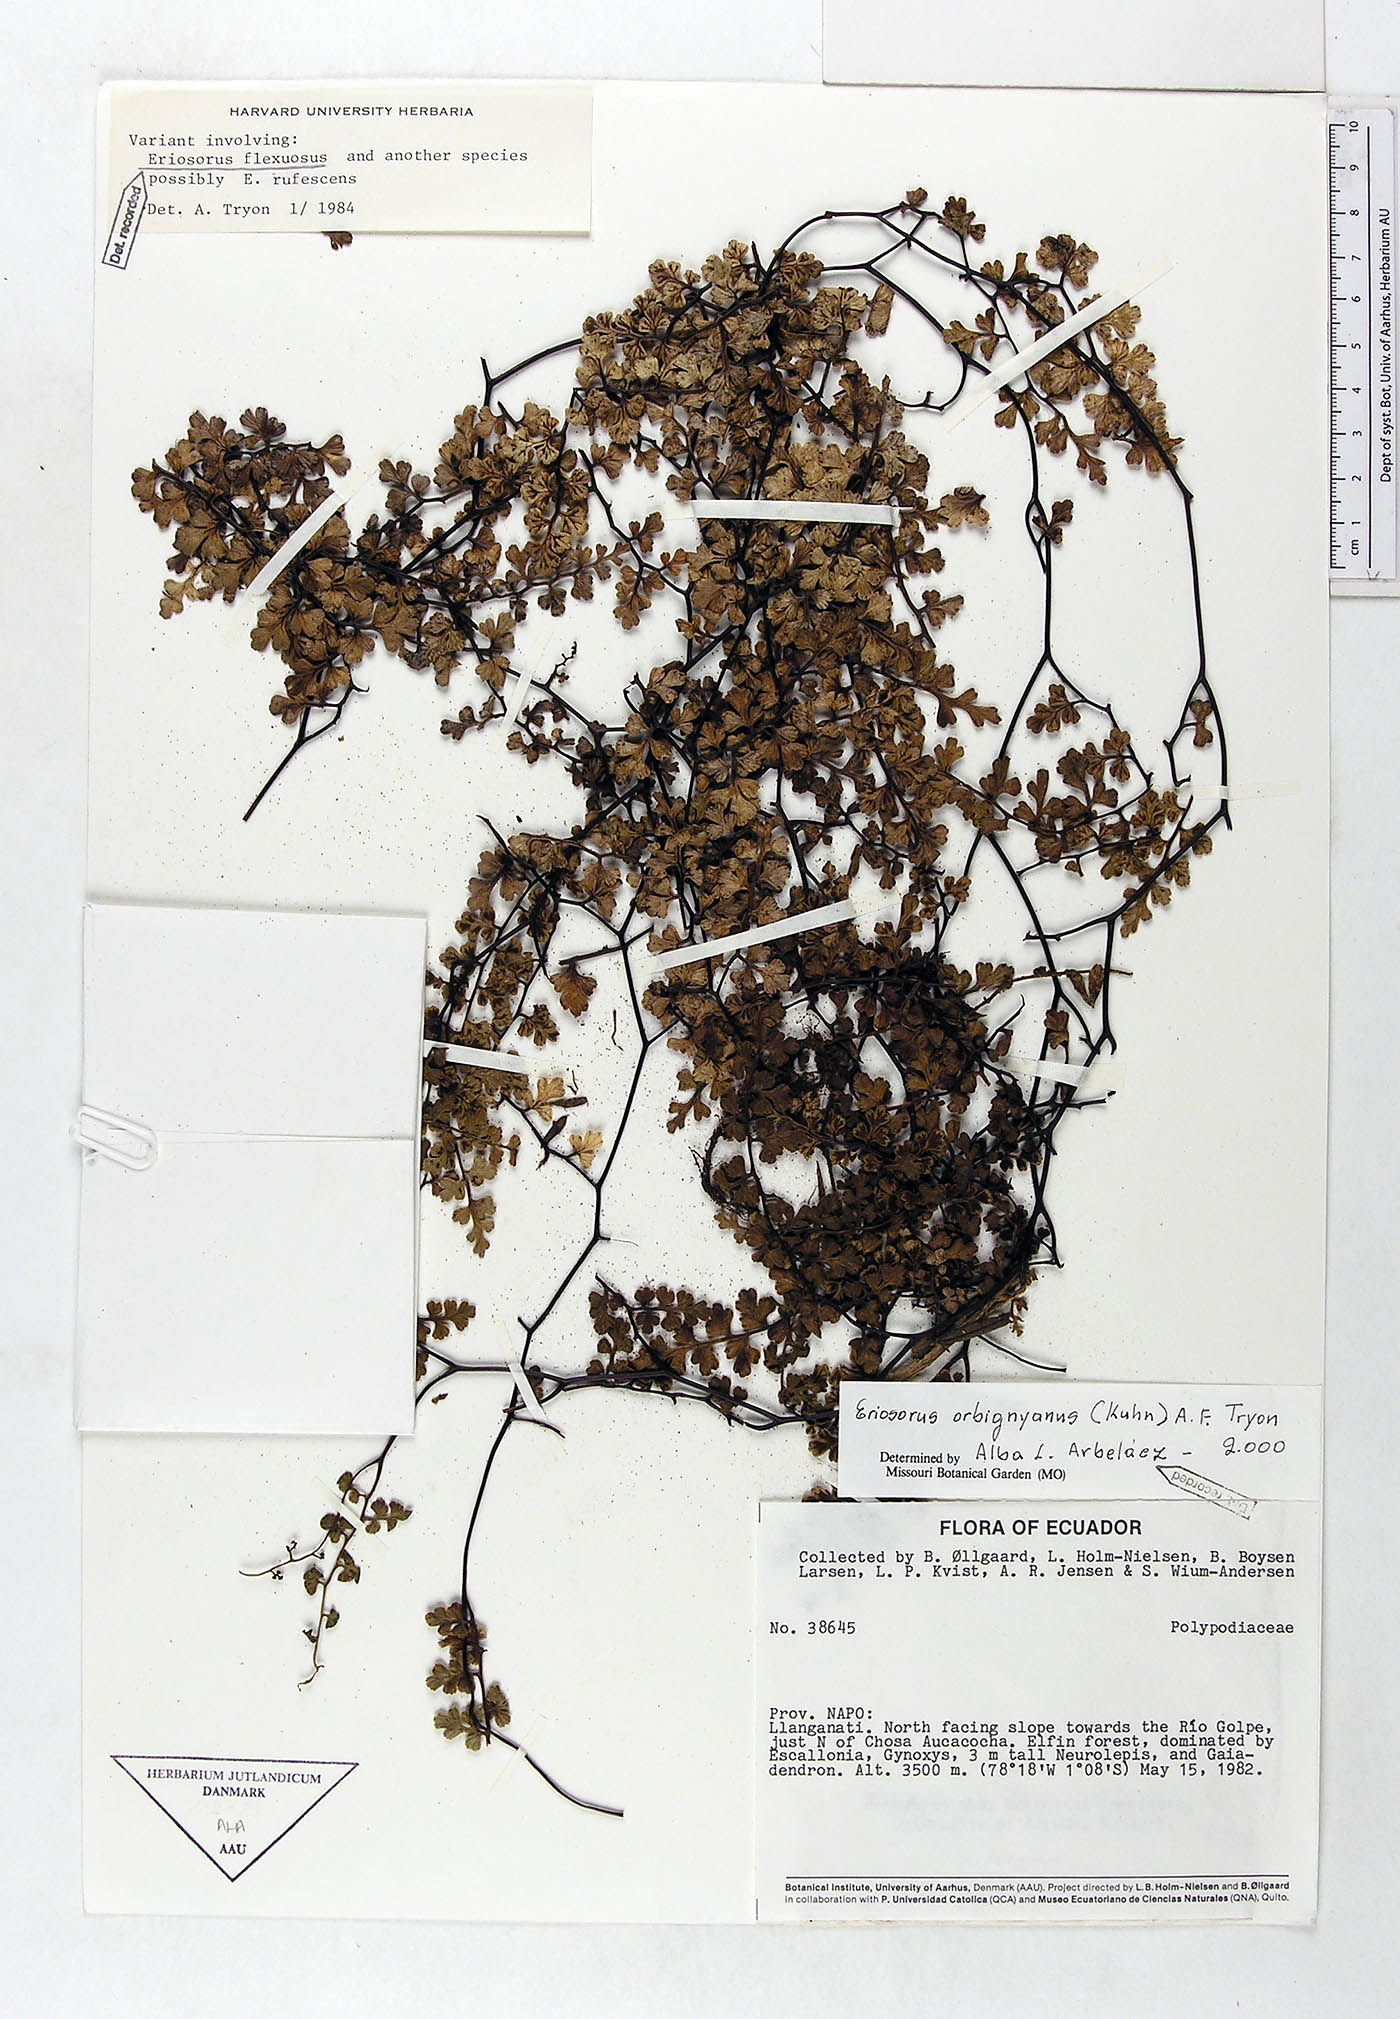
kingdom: Plantae
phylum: Tracheophyta
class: Polypodiopsida
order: Polypodiales
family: Pteridaceae
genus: Jamesonia
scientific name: Jamesonia orbignyana
